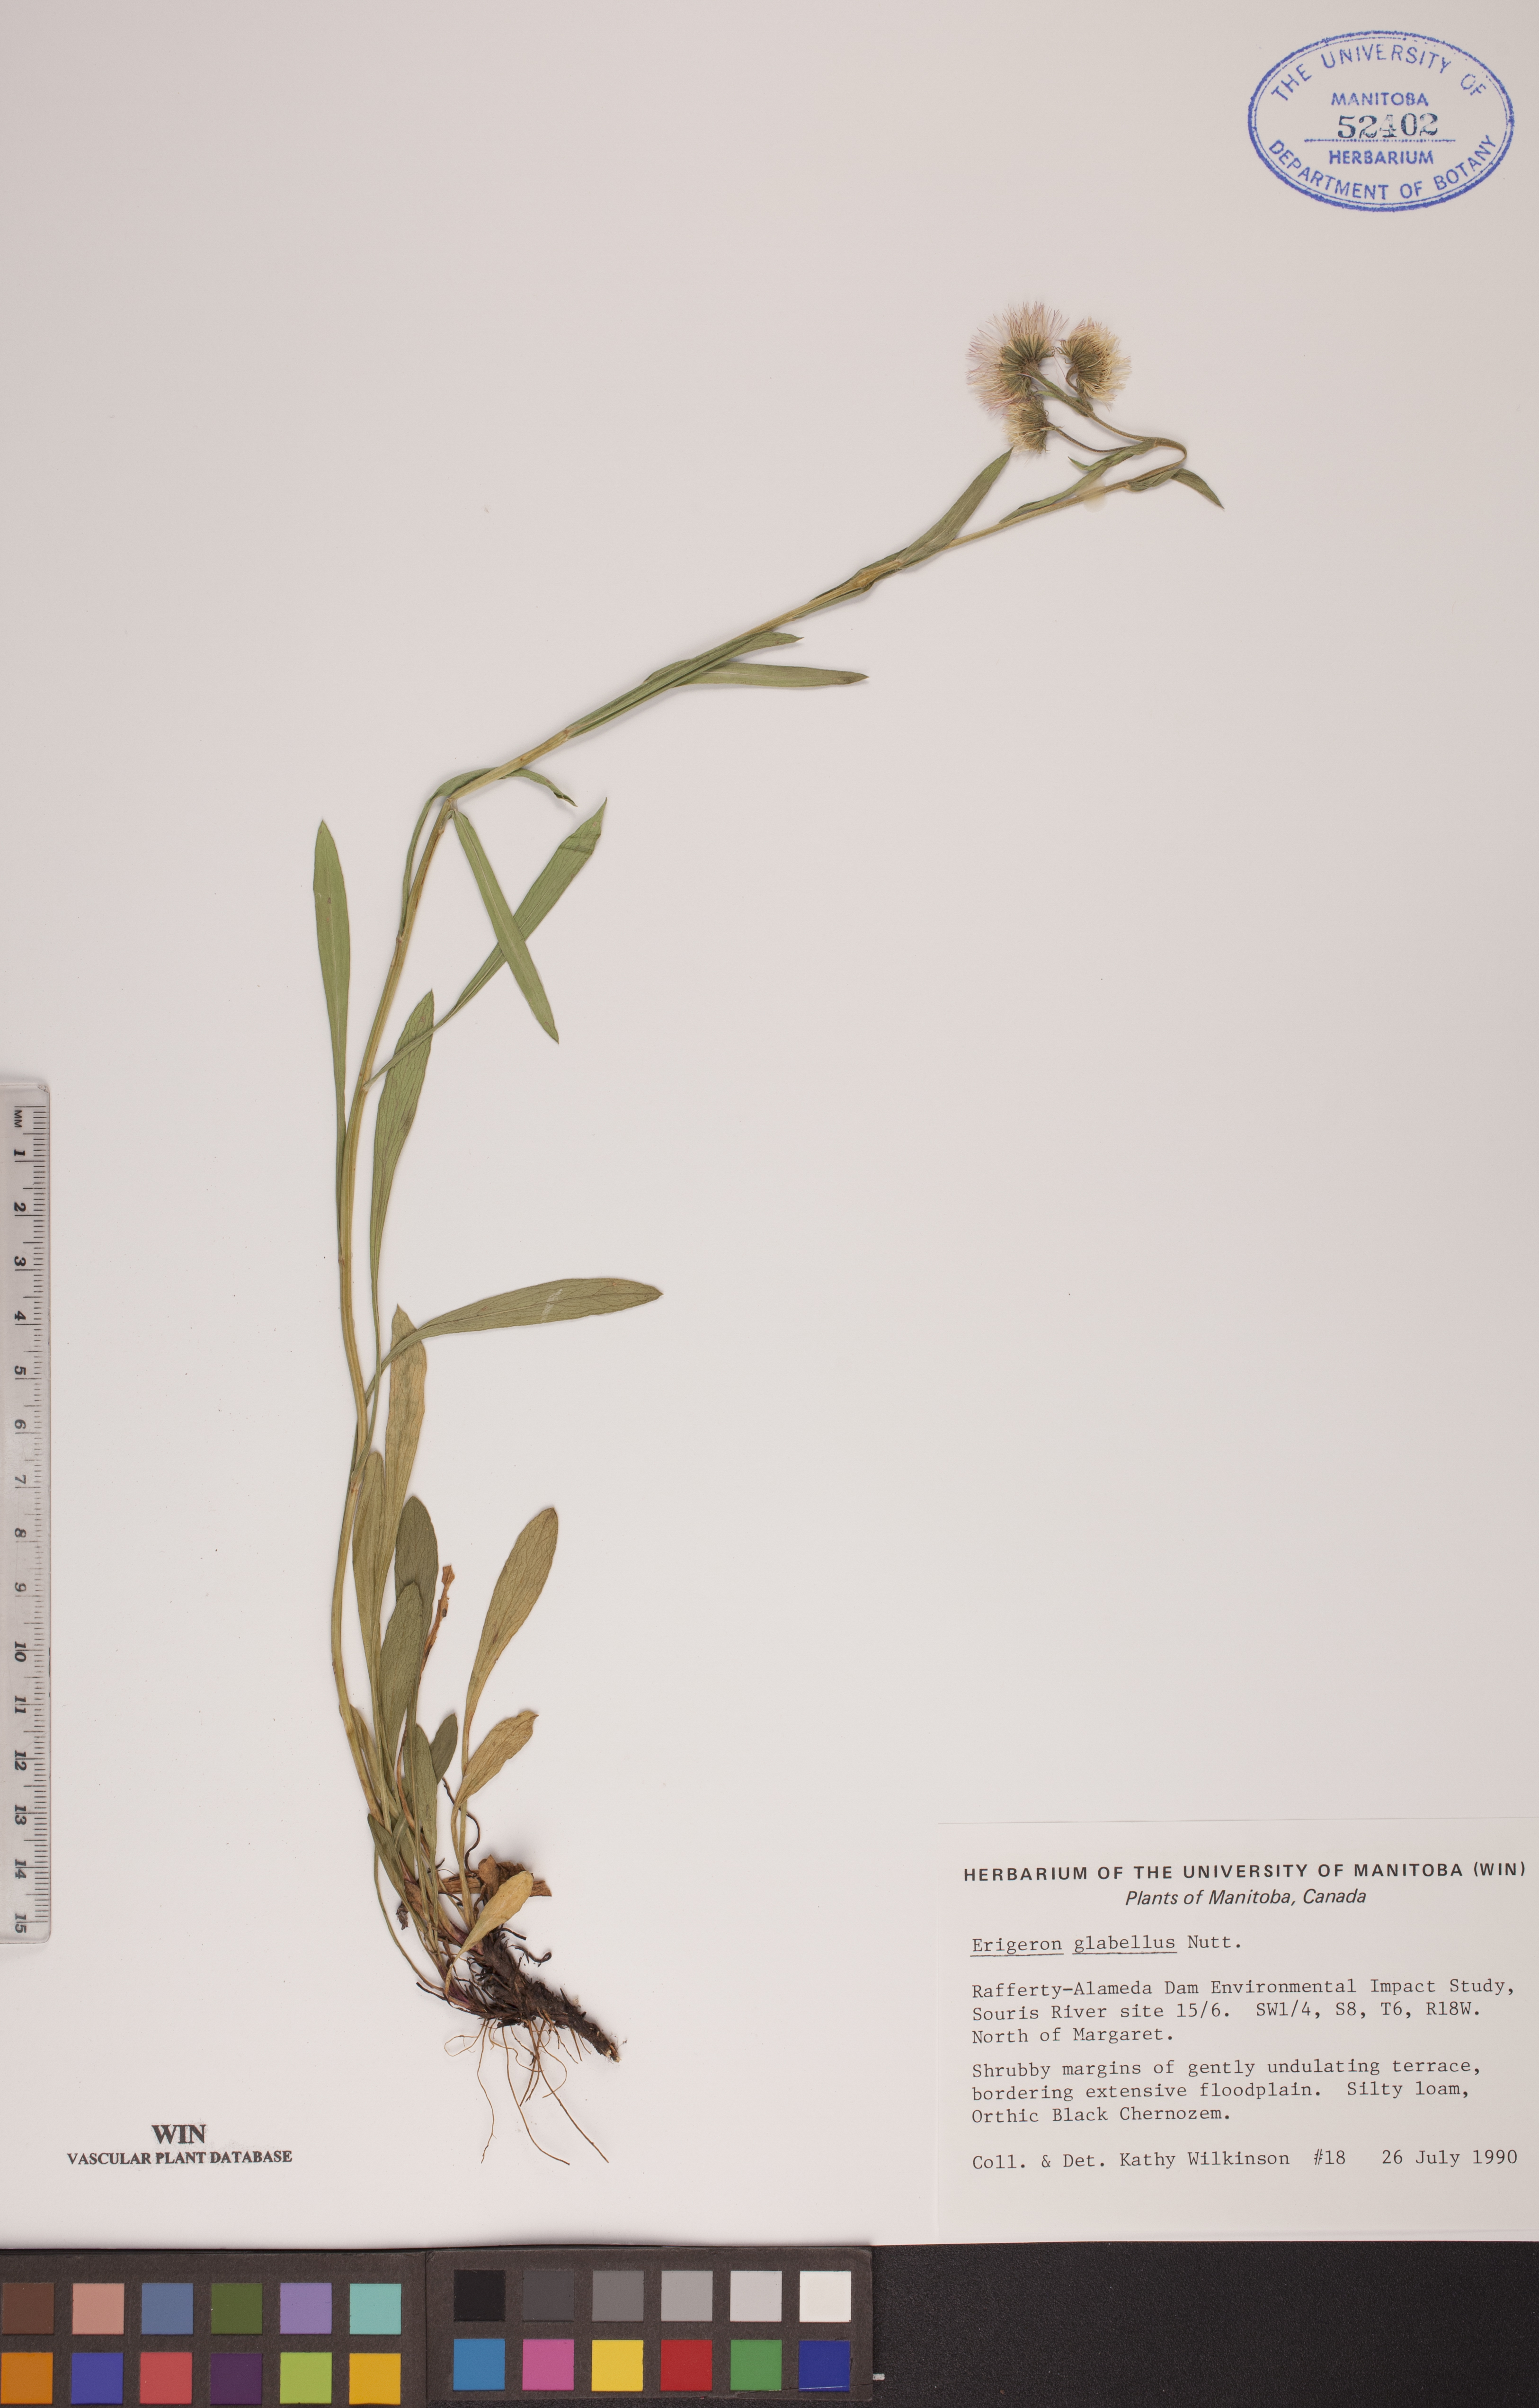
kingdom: Plantae
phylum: Tracheophyta
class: Magnoliopsida
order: Asterales
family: Asteraceae
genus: Erigeron
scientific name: Erigeron glabellus
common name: Smooth fleabane
